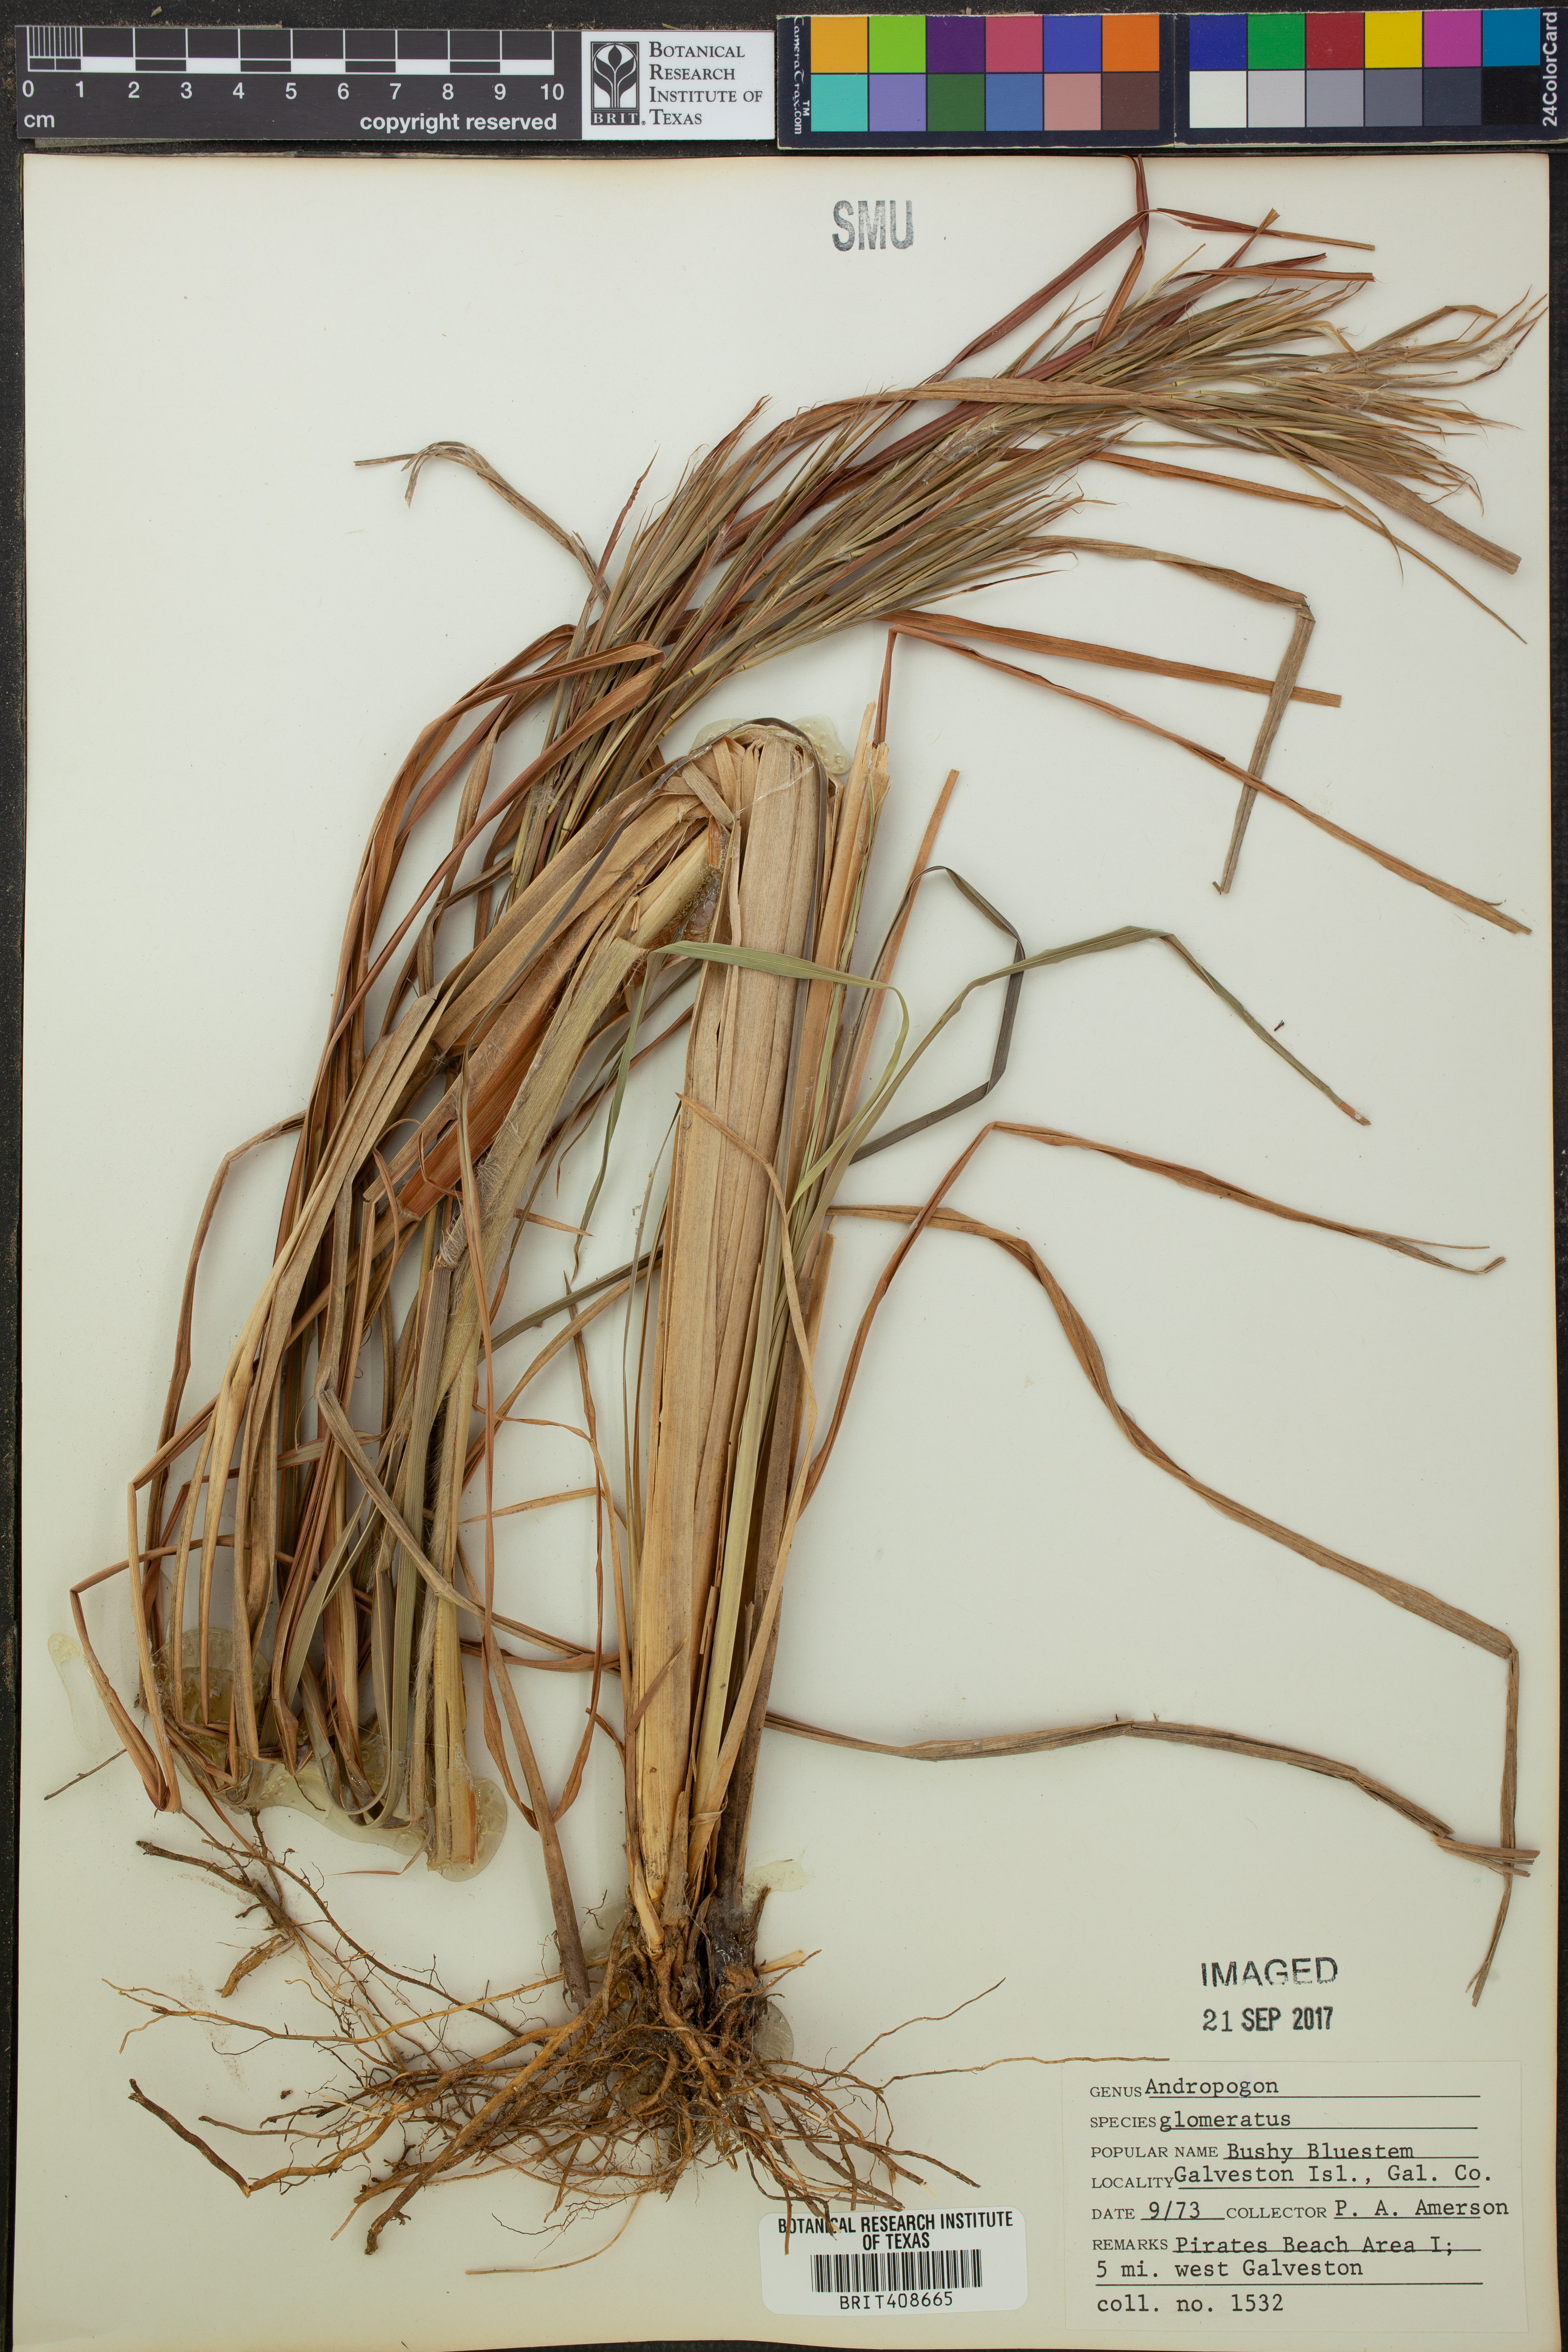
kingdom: Plantae
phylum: Tracheophyta
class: Liliopsida
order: Poales
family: Poaceae
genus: Andropogon
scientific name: Andropogon glomeratus
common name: Bushy beard grass
